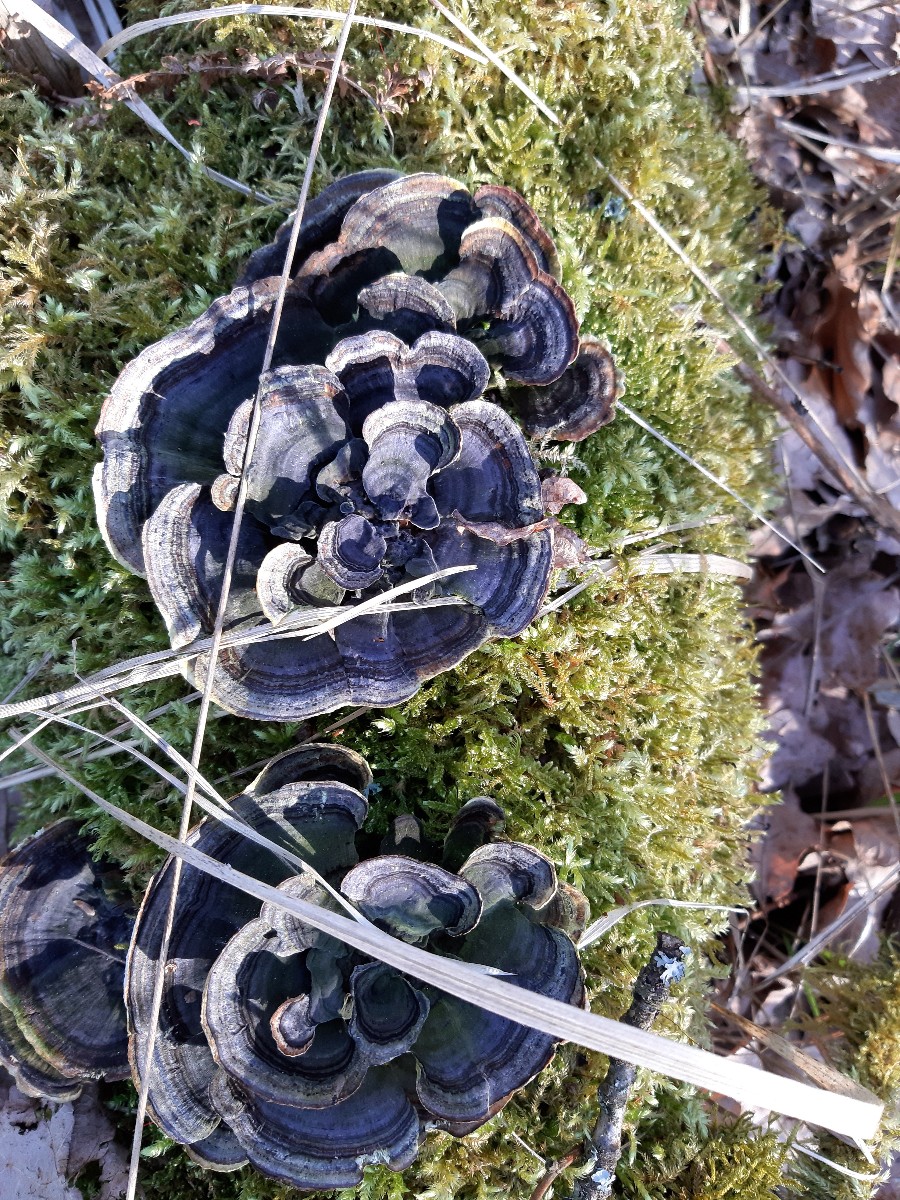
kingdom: Fungi
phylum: Basidiomycota
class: Agaricomycetes
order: Polyporales
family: Polyporaceae
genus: Trametes
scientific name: Trametes versicolor
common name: broget læderporesvamp
